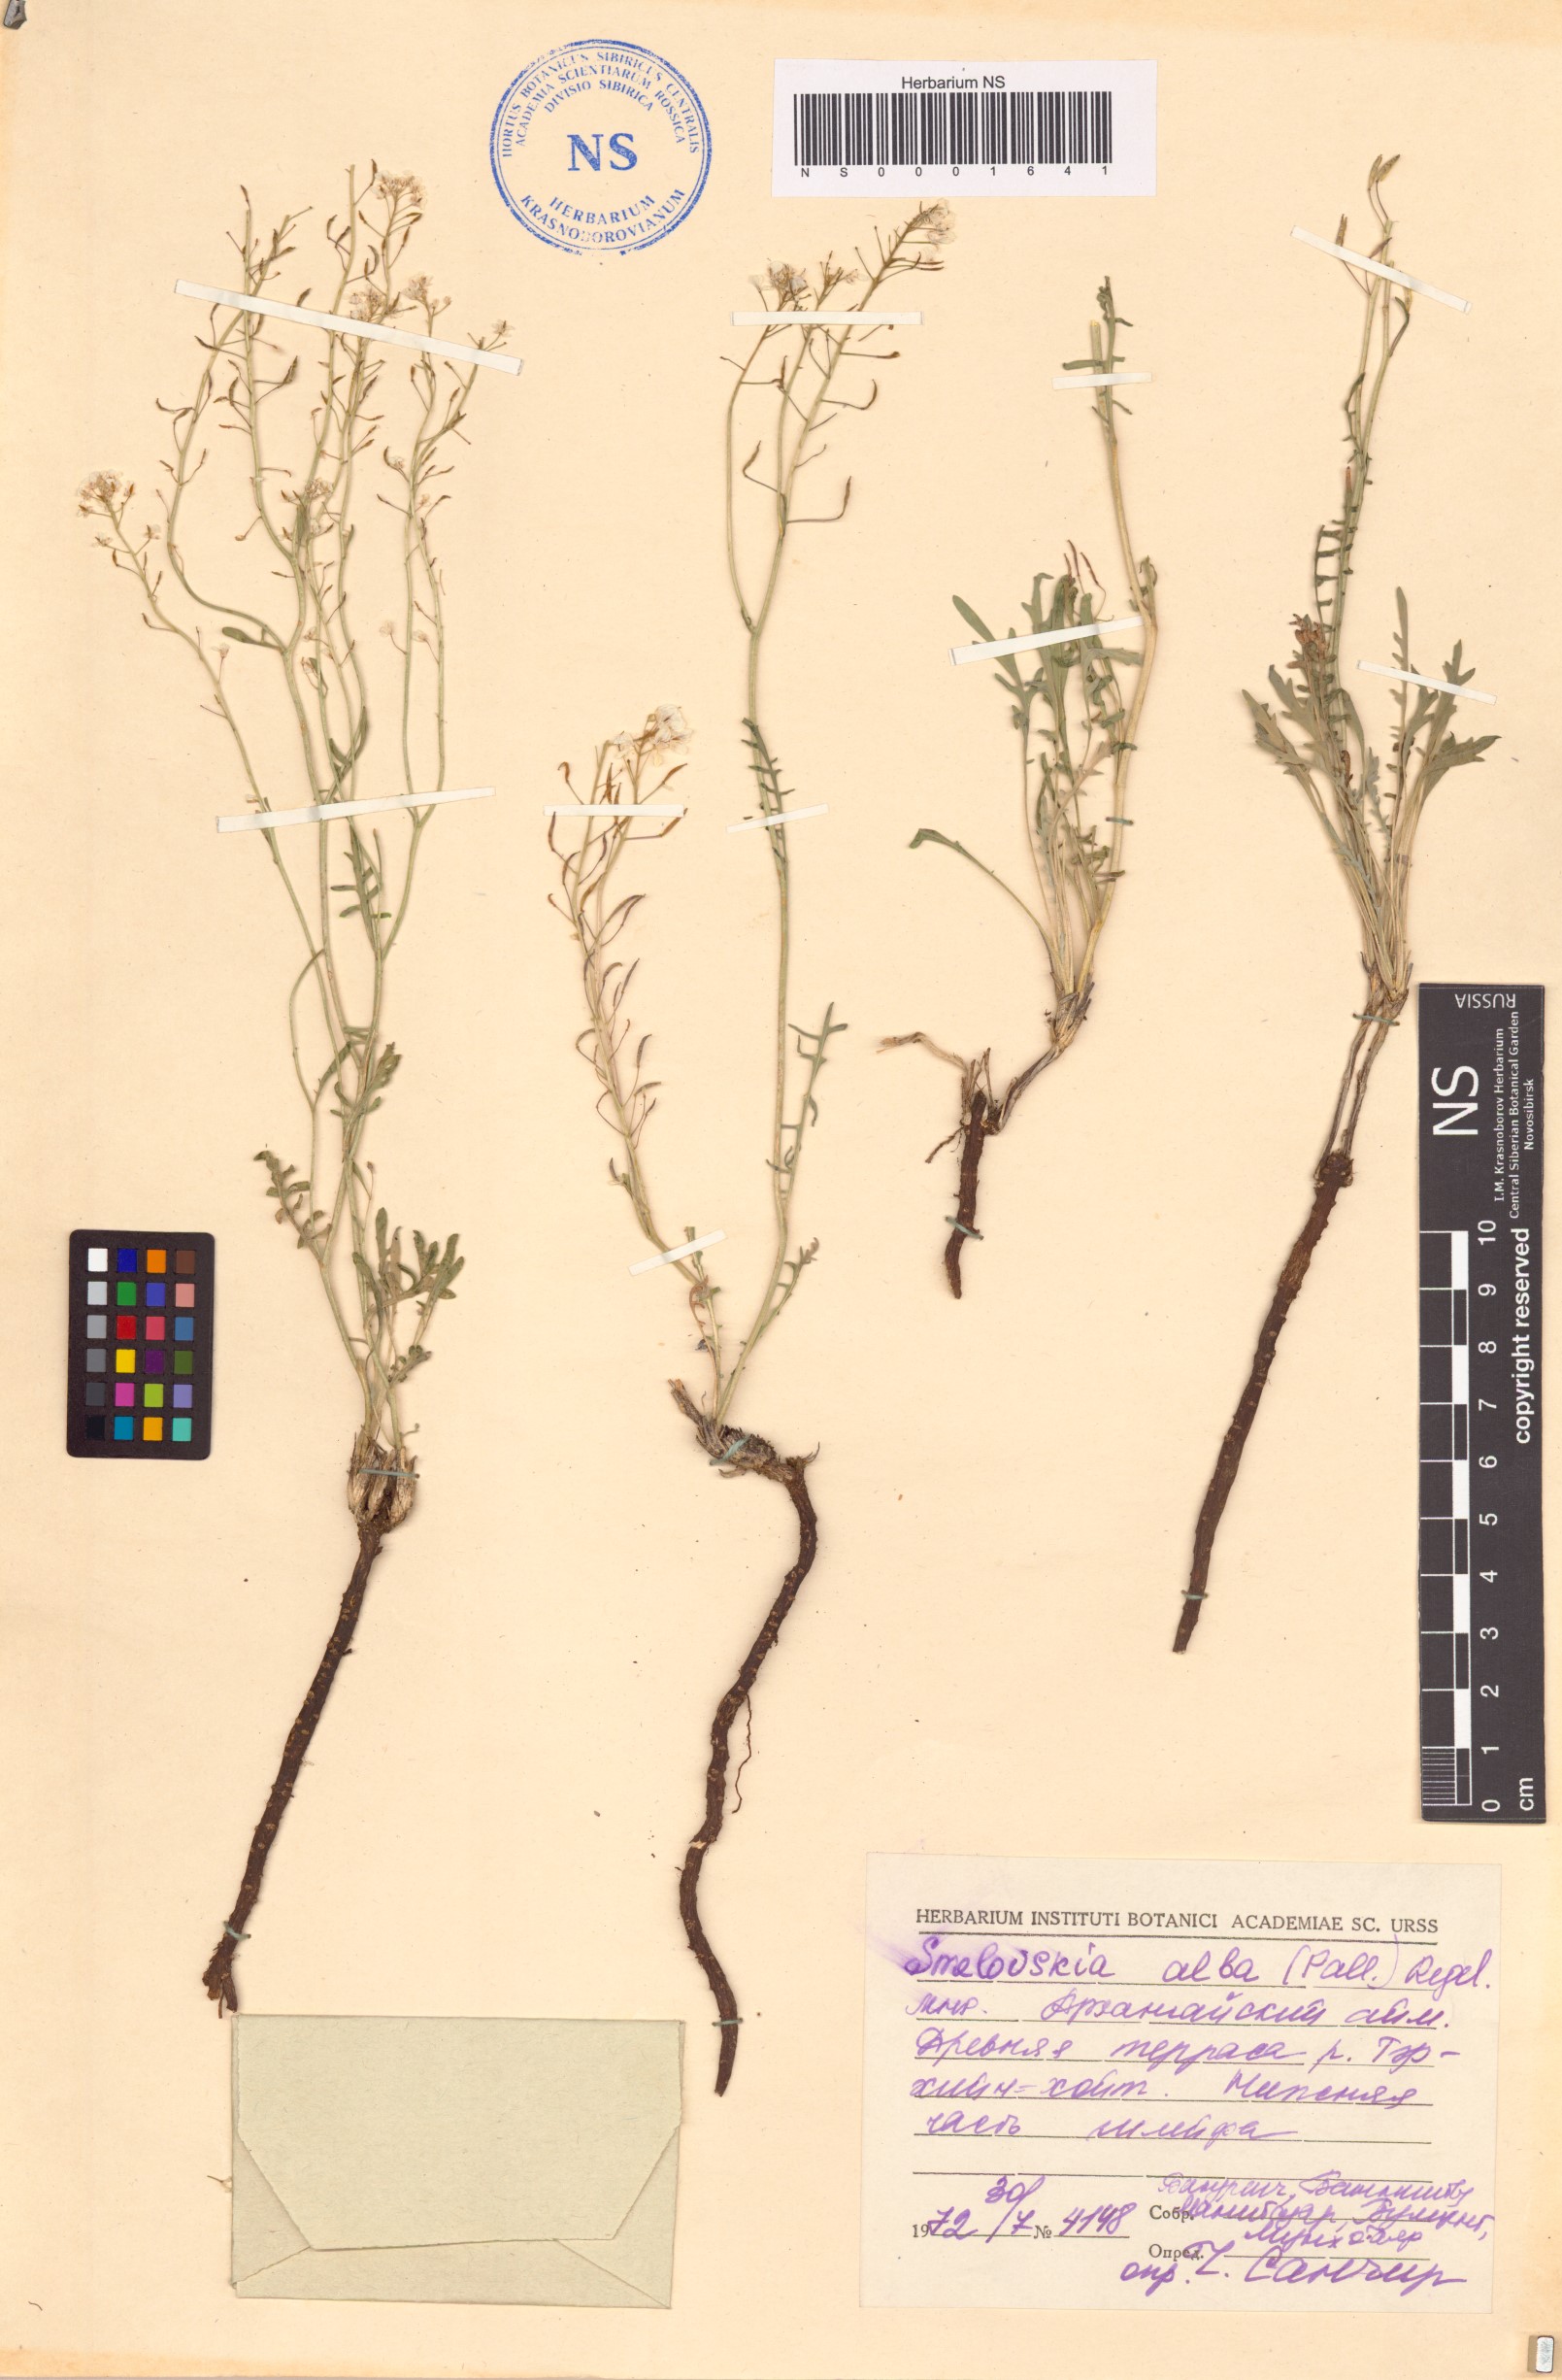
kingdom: Plantae
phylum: Tracheophyta
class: Magnoliopsida
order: Brassicales
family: Brassicaceae
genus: Smelowskia
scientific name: Smelowskia alba
